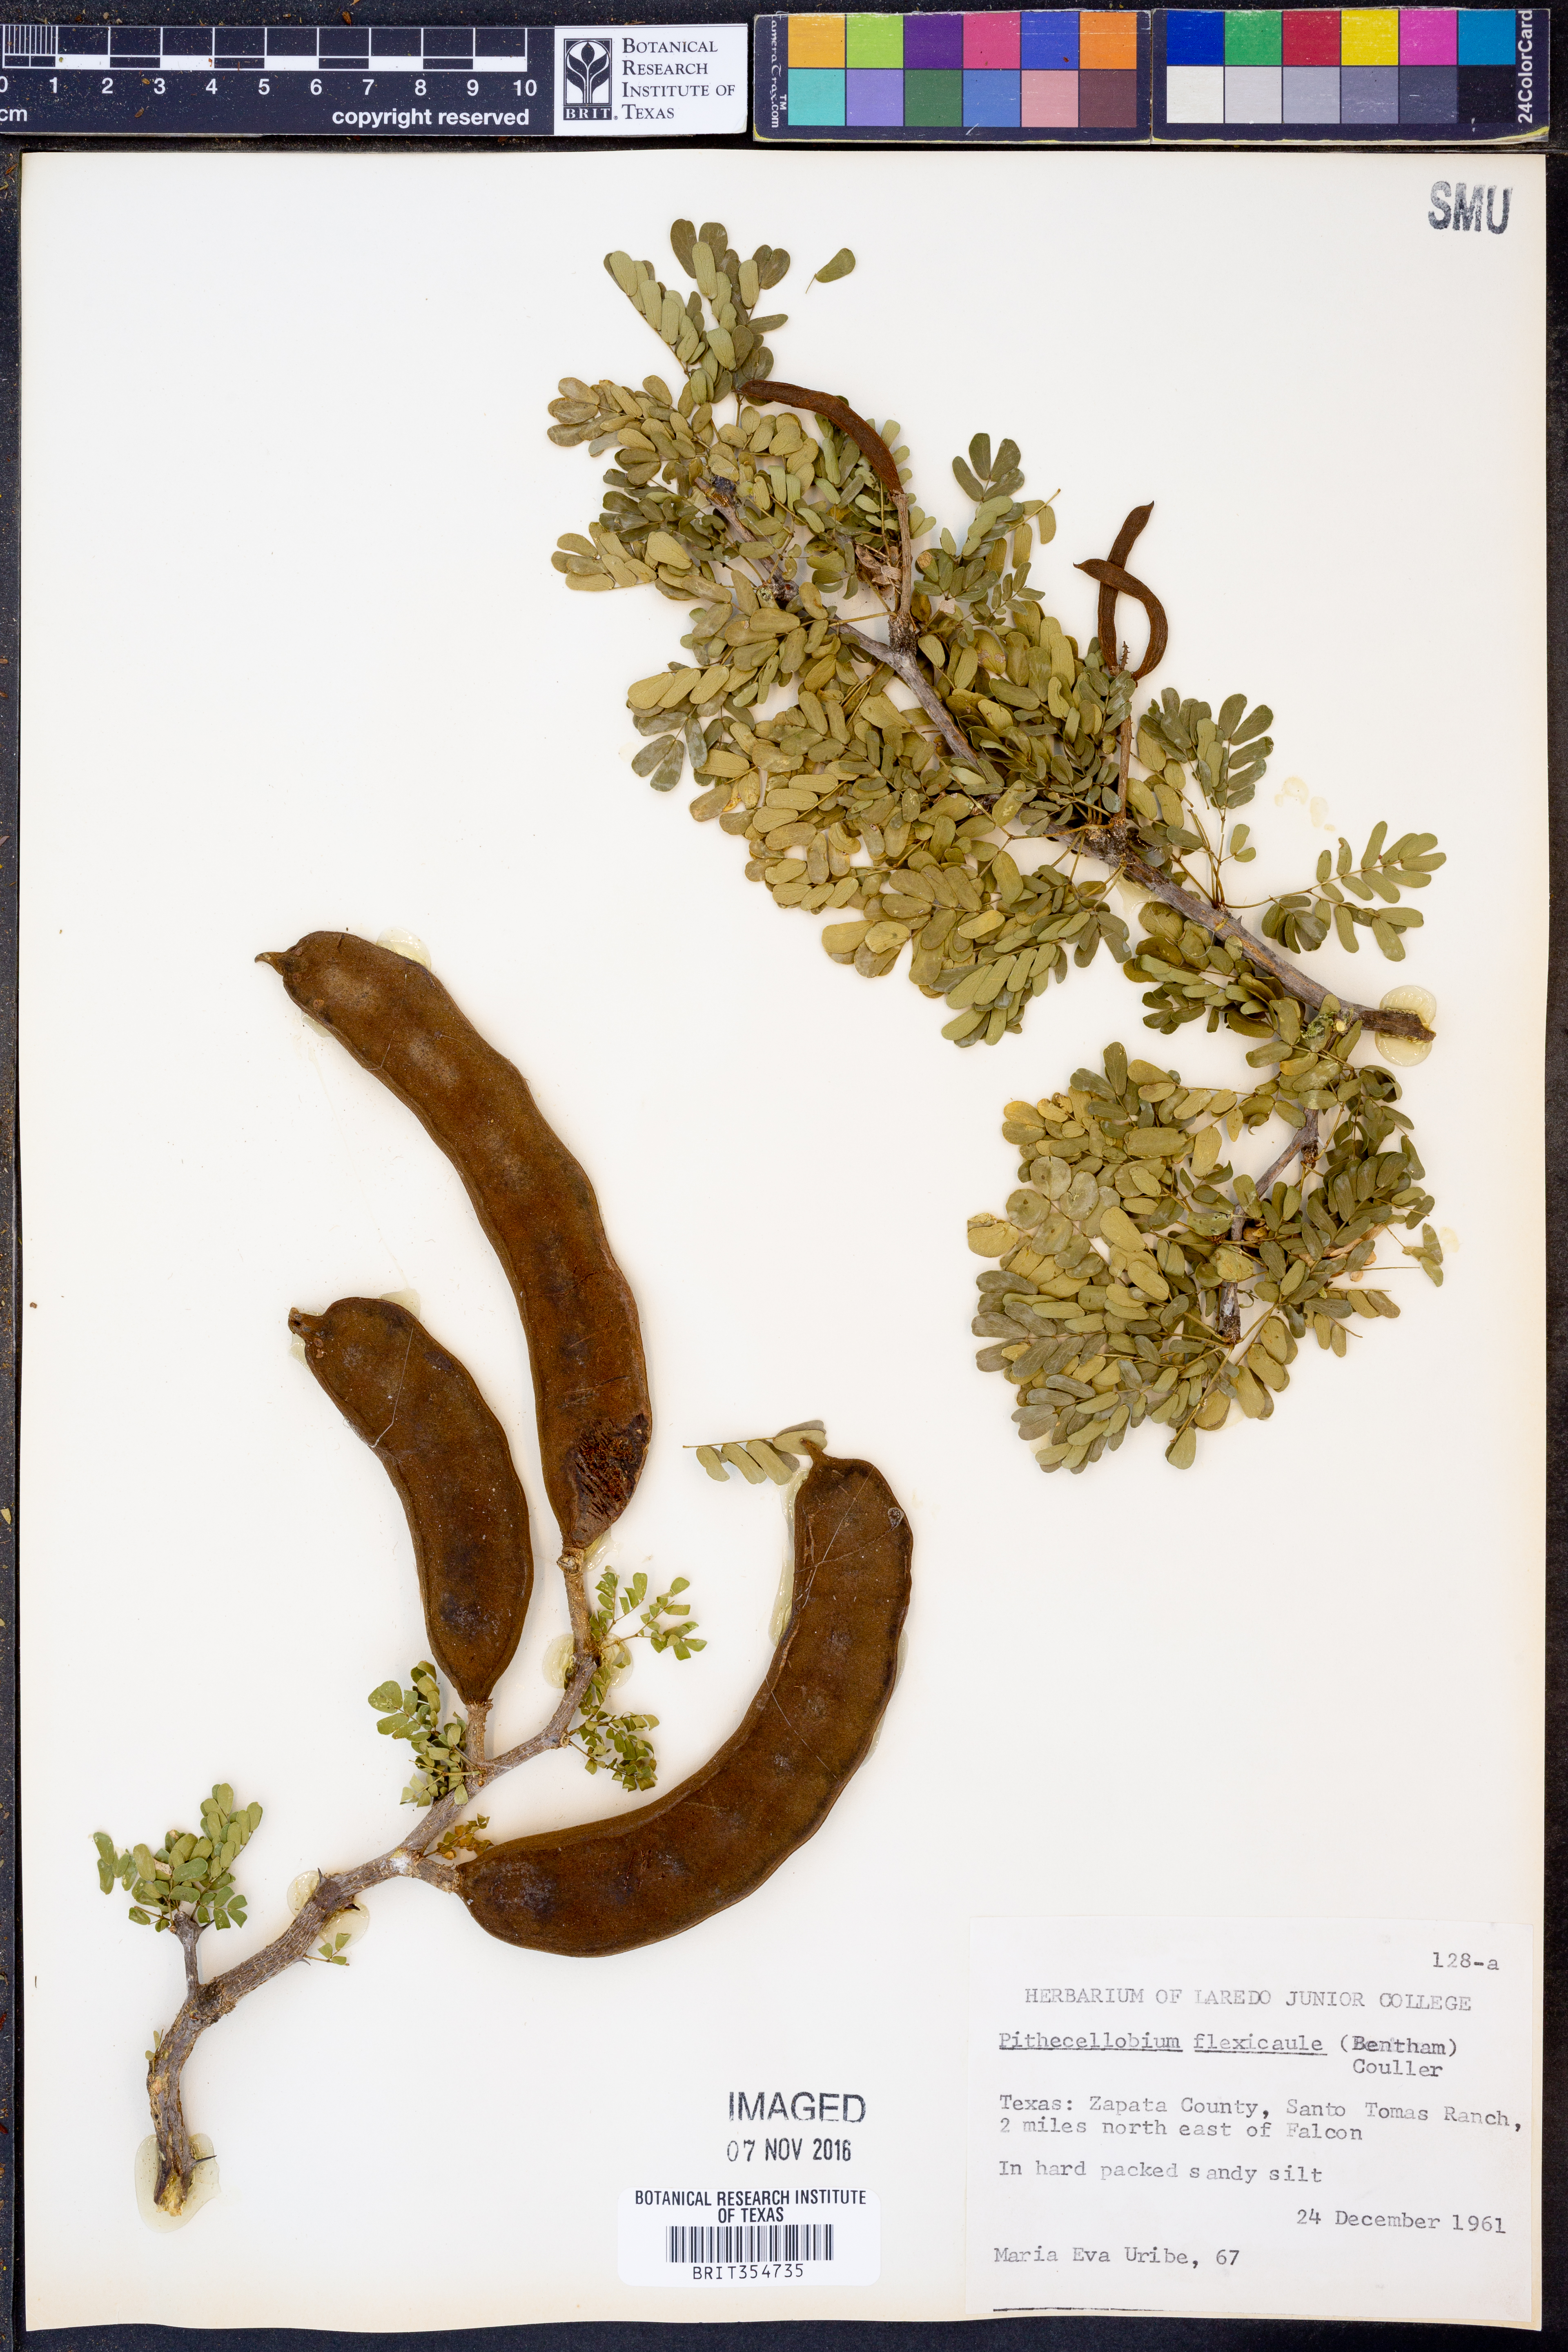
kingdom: Plantae
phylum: Tracheophyta
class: Magnoliopsida
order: Fabales
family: Fabaceae
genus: Ebenopsis
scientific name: Ebenopsis ebano
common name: Ebony blackbead
